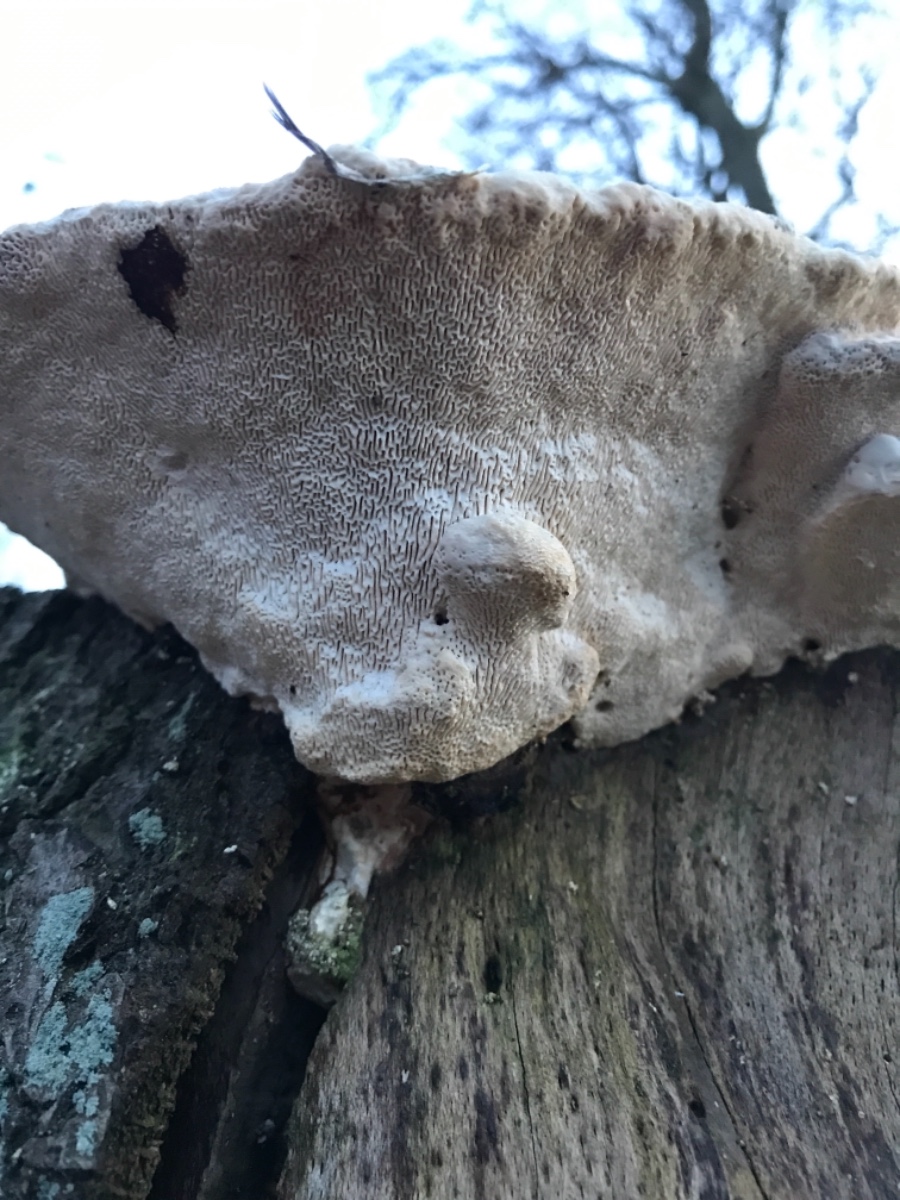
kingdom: Fungi
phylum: Basidiomycota
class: Agaricomycetes
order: Polyporales
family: Polyporaceae
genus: Trametes
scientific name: Trametes gibbosa
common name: puklet læderporesvamp
